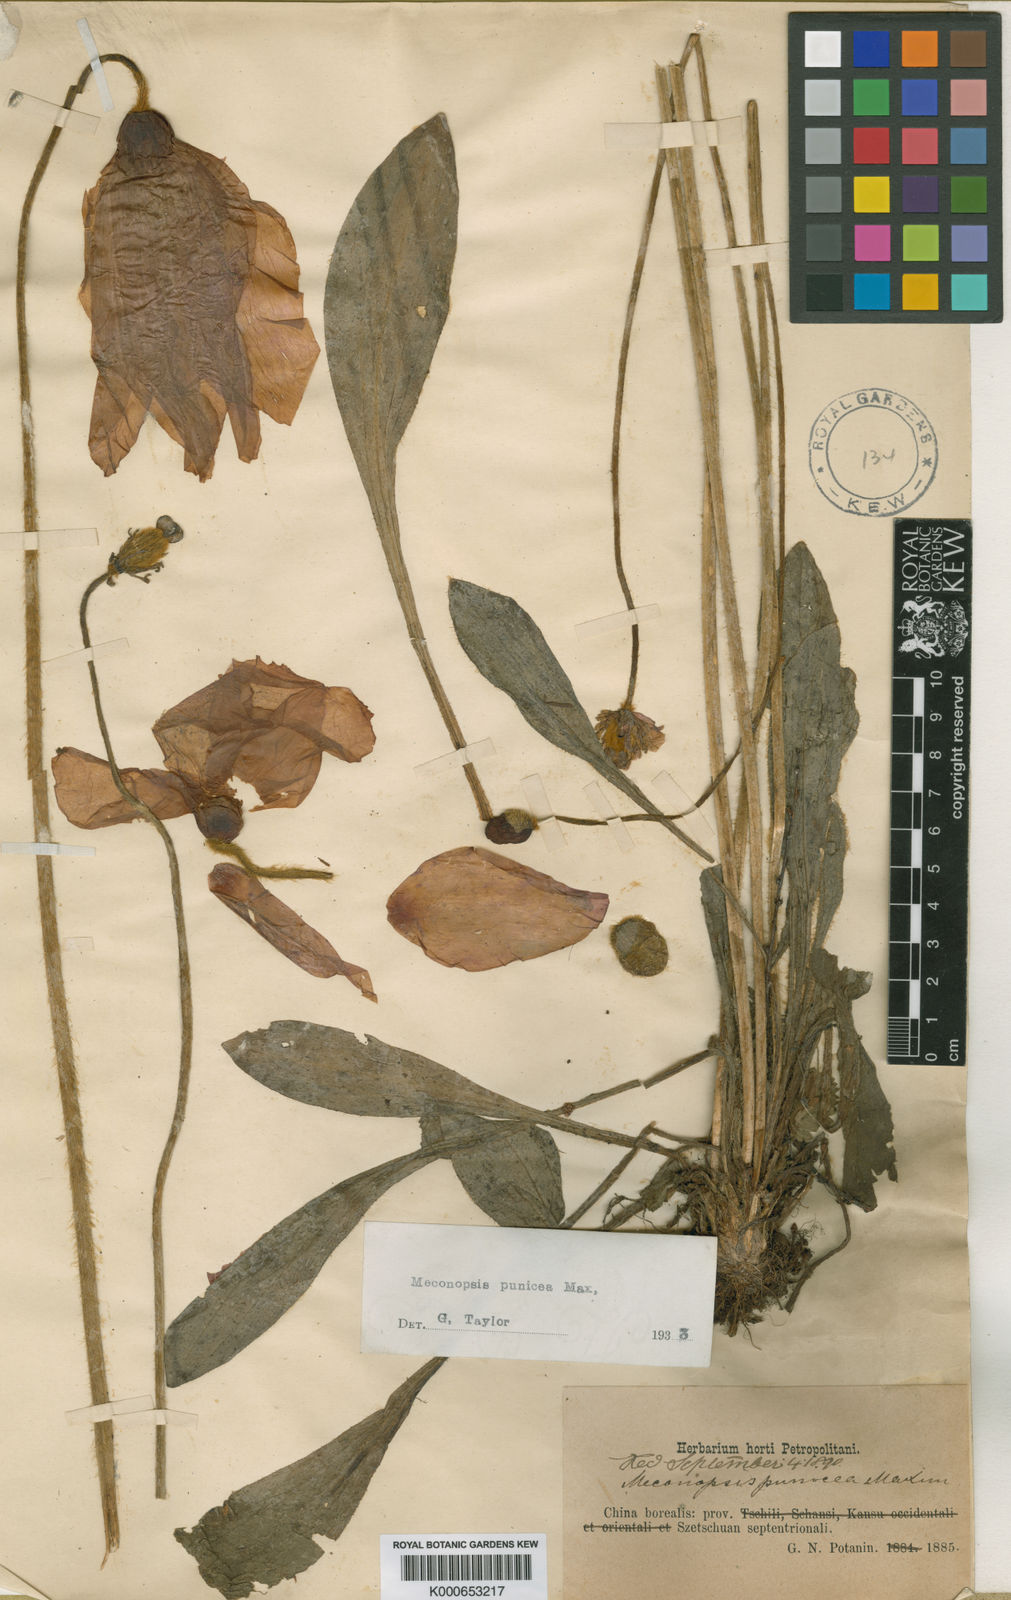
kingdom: Plantae
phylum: Tracheophyta
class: Magnoliopsida
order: Ranunculales
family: Papaveraceae
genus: Meconopsis
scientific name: Meconopsis punicea
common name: Red poppywort
